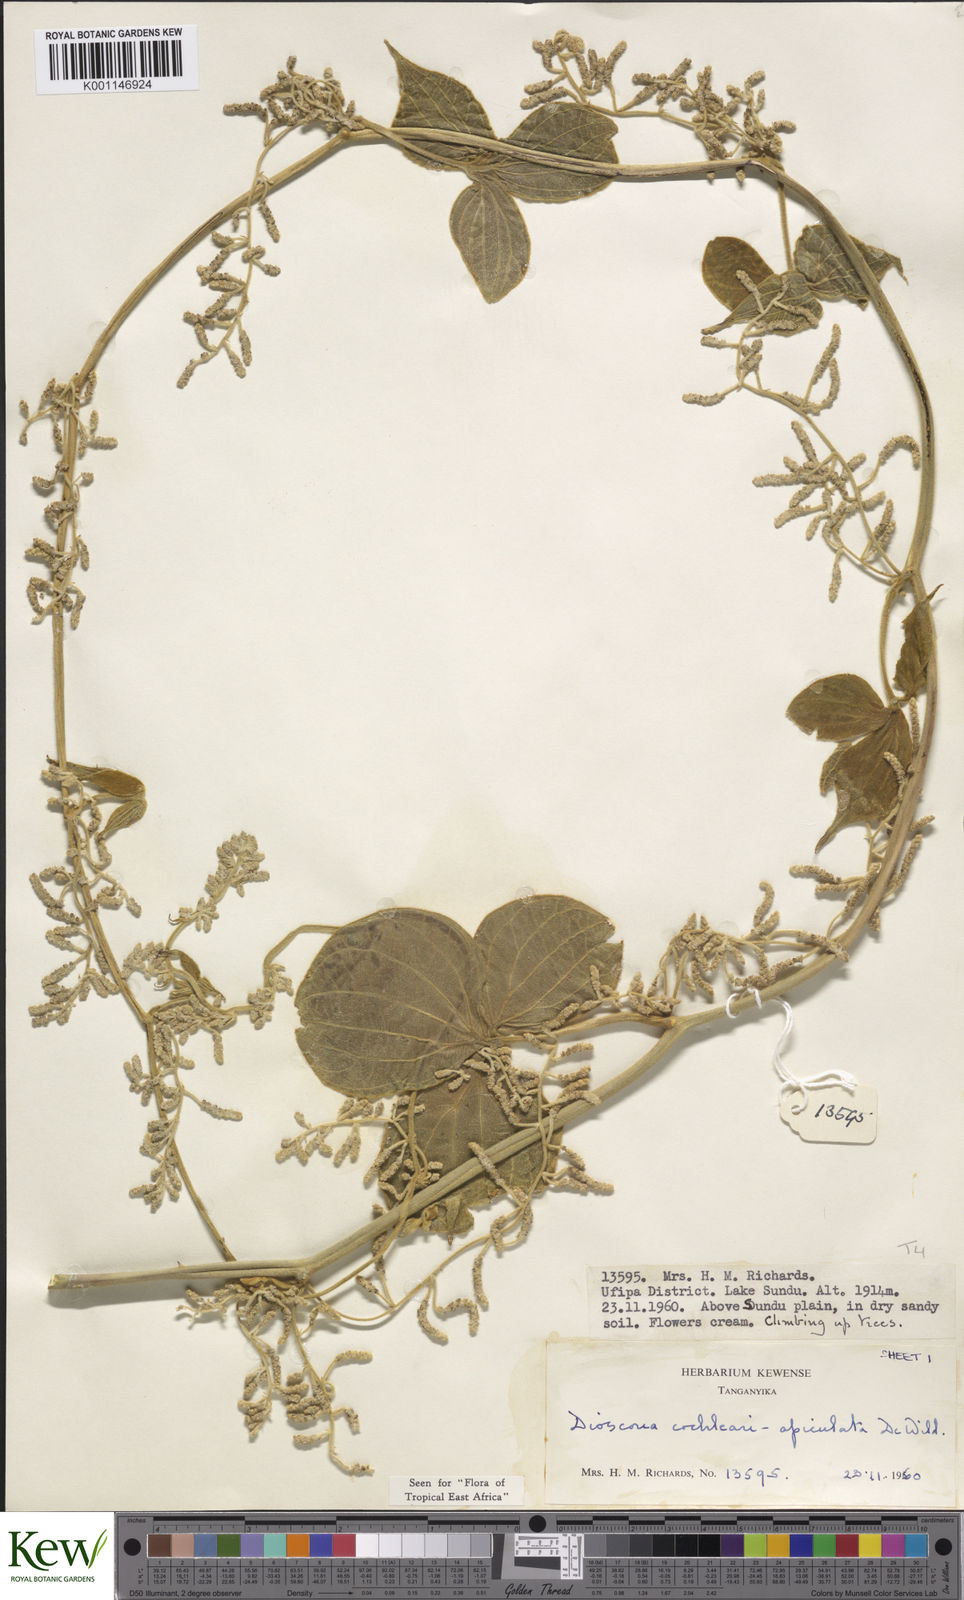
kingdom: Plantae
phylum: Tracheophyta
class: Liliopsida
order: Dioscoreales
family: Dioscoreaceae
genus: Dioscorea
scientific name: Dioscorea cochleariapiculata
